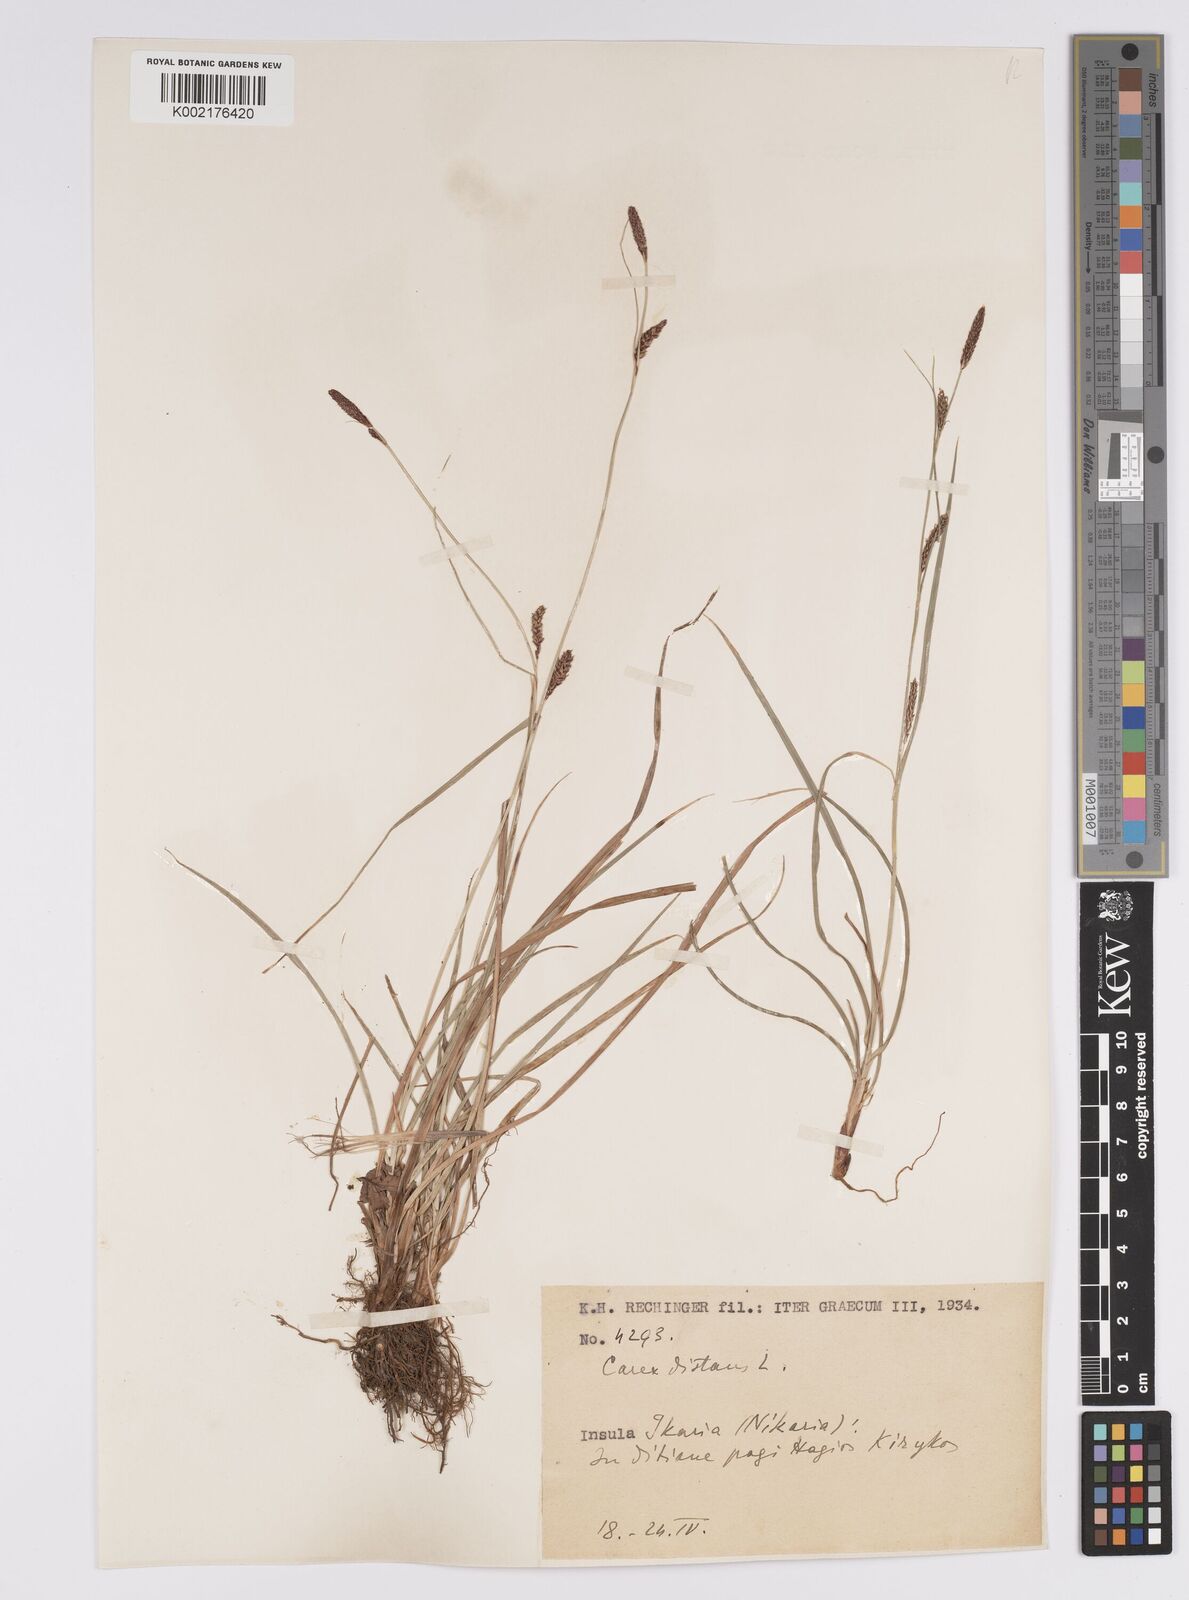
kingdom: Plantae
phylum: Tracheophyta
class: Liliopsida
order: Poales
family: Cyperaceae
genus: Carex
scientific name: Carex distans
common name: Distant sedge
